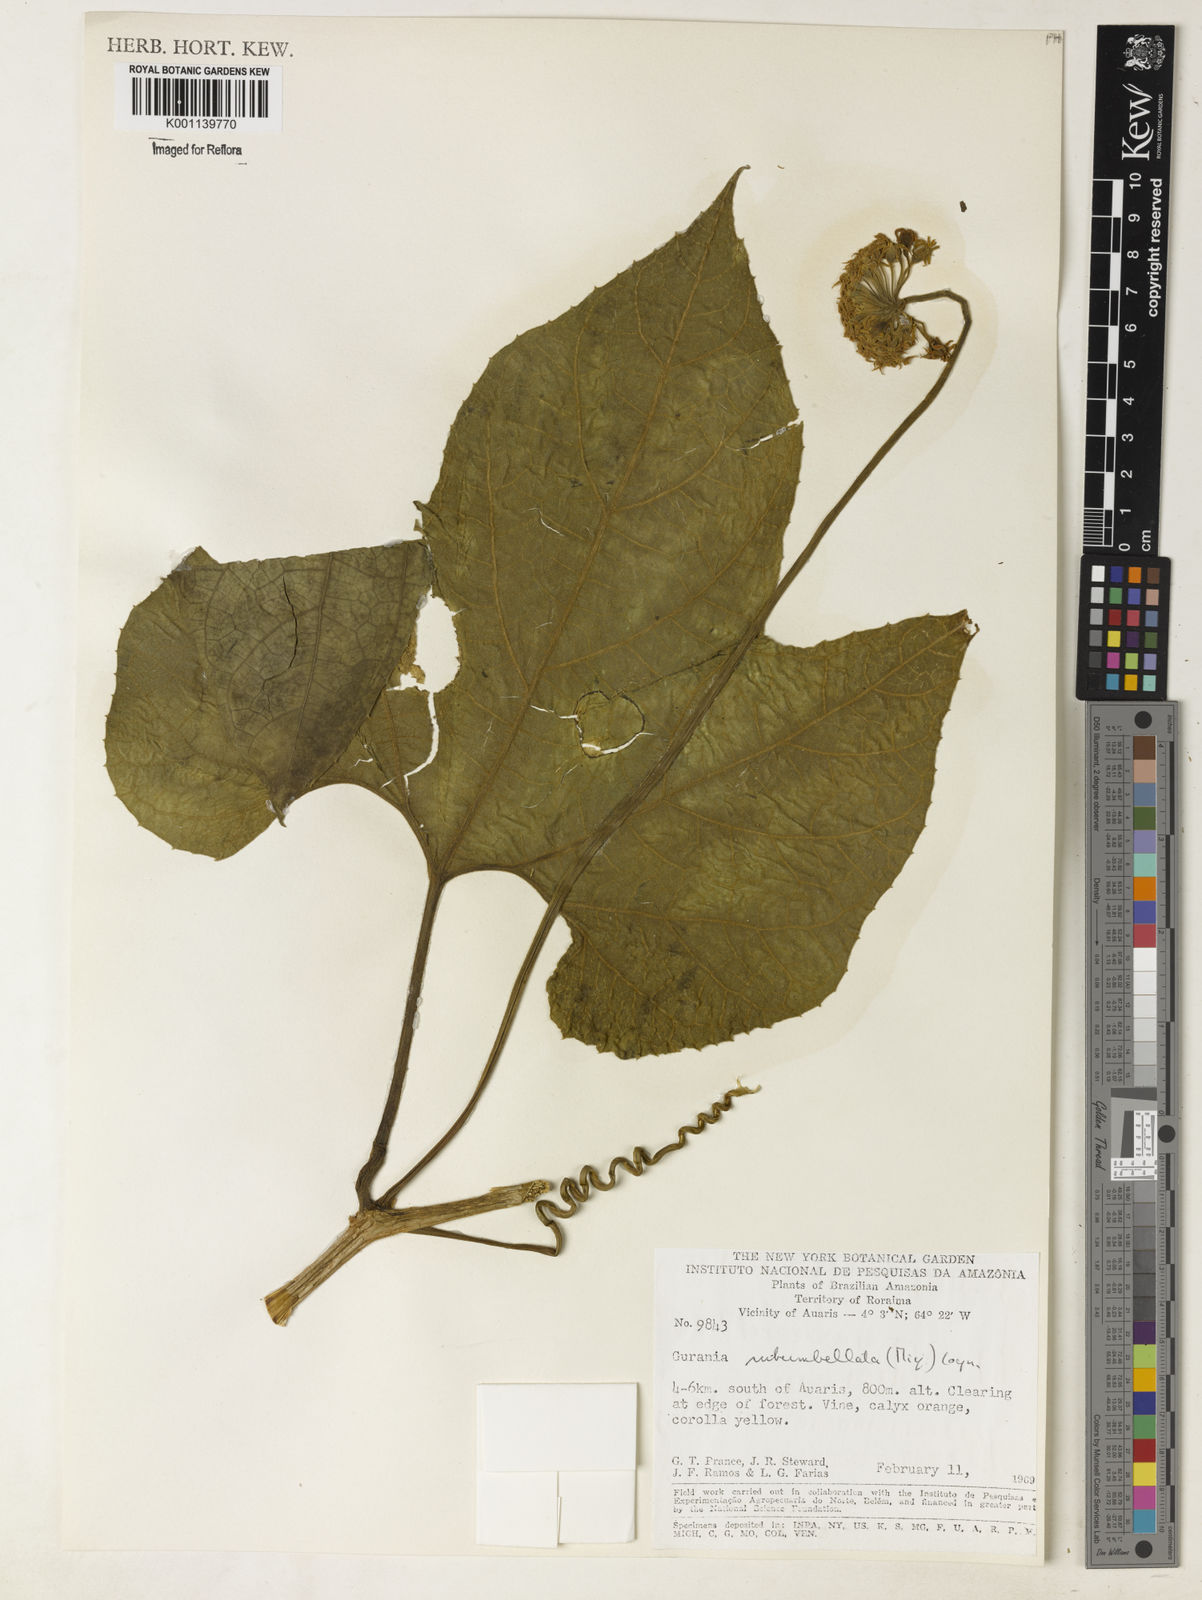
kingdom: Plantae
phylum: Tracheophyta
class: Magnoliopsida
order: Cucurbitales
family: Cucurbitaceae
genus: Gurania
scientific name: Gurania subumbellata
